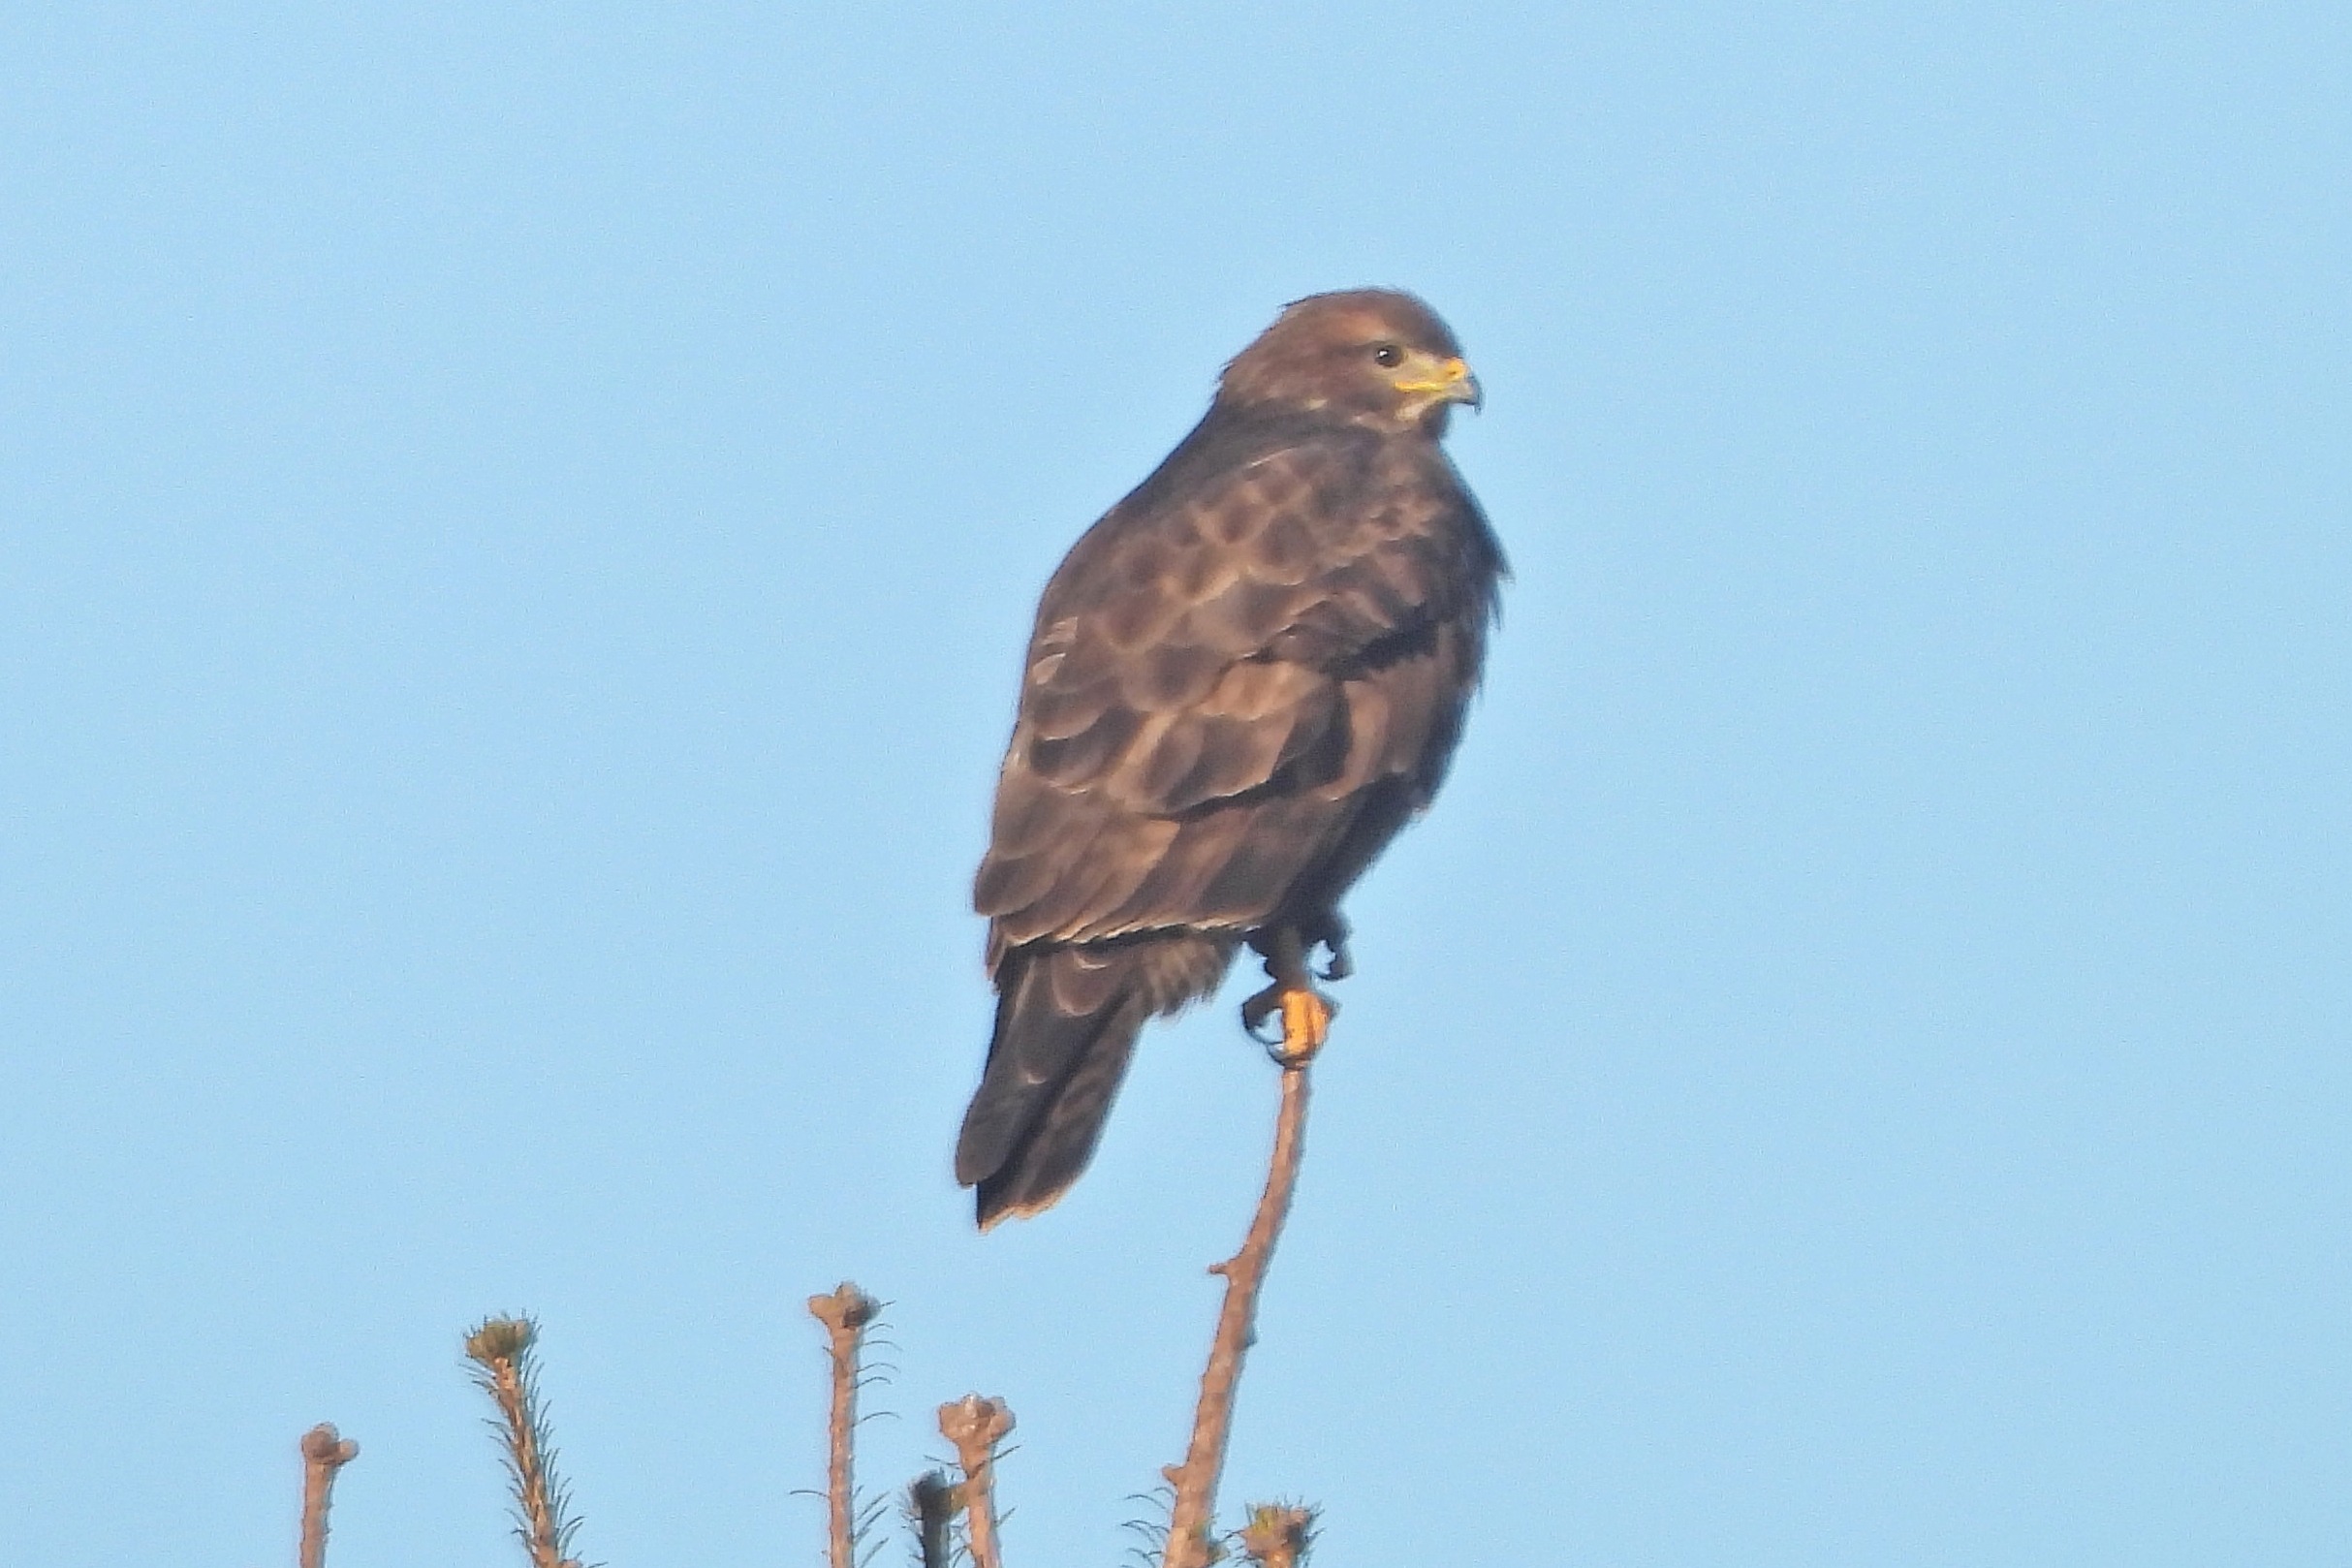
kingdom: Animalia
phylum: Chordata
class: Aves
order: Accipitriformes
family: Accipitridae
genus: Buteo
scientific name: Buteo buteo
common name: Musvåge
